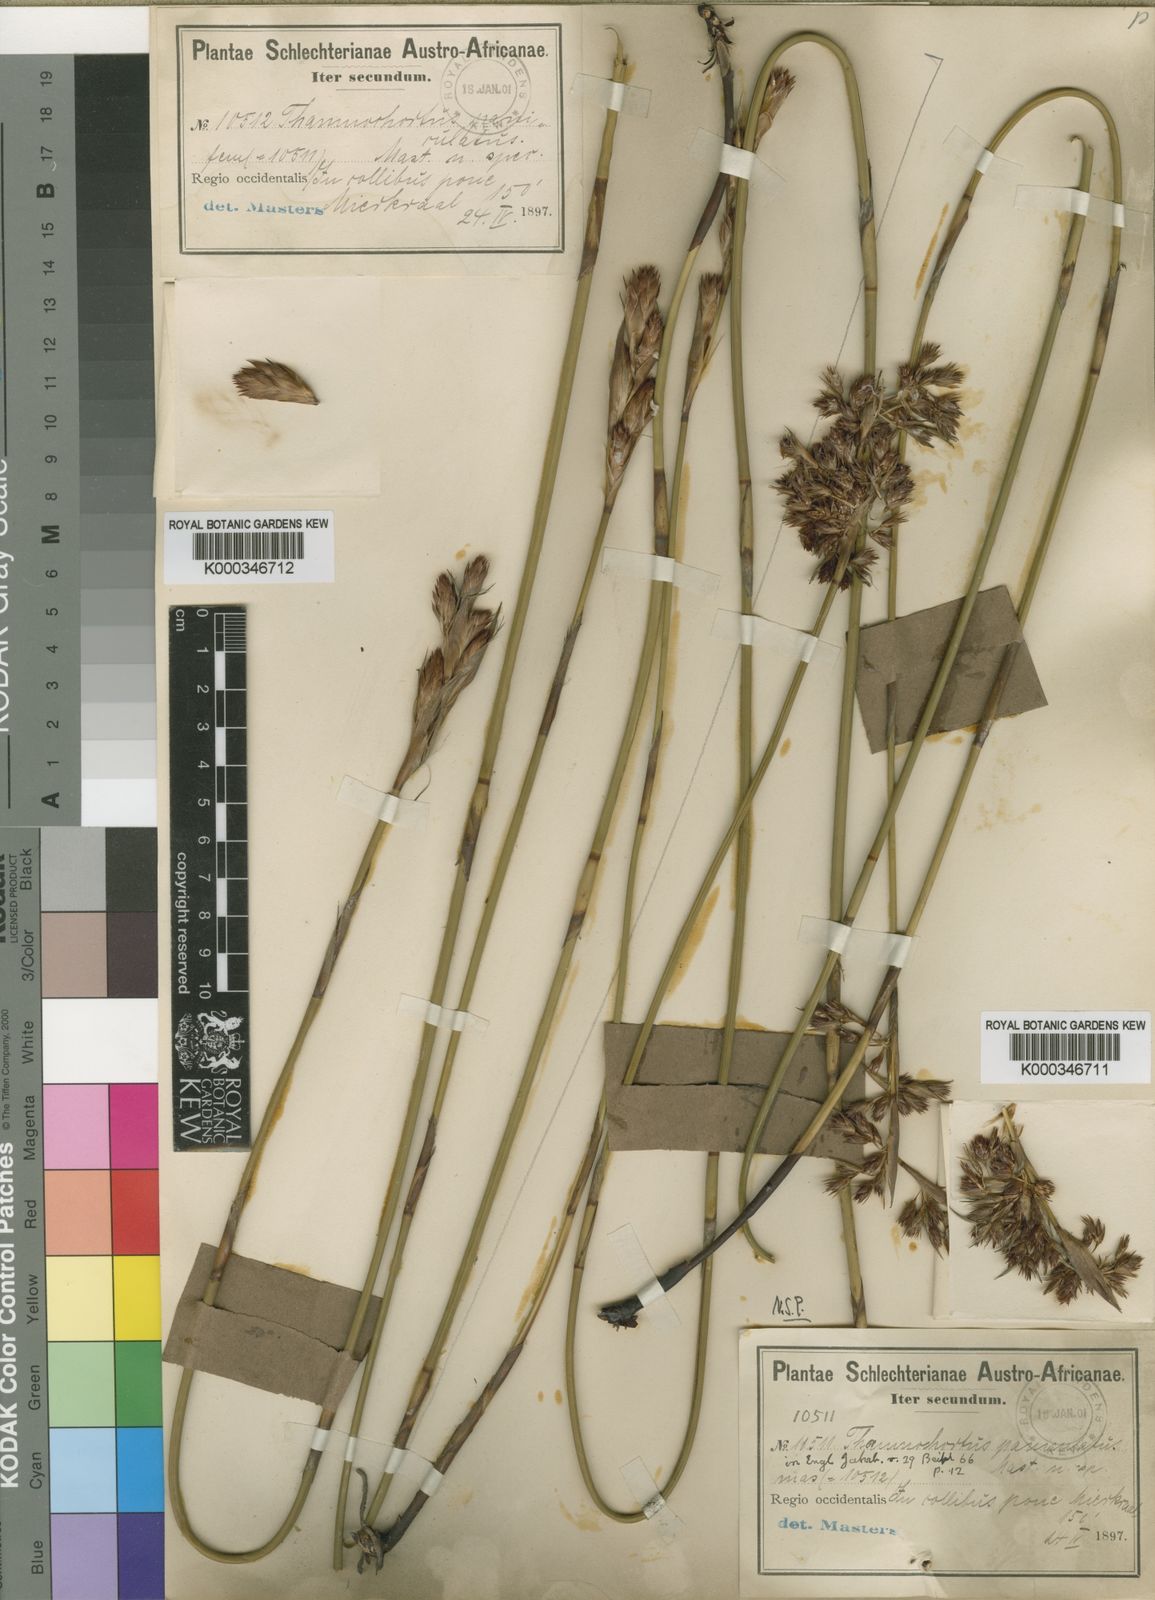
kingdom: Plantae
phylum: Tracheophyta
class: Liliopsida
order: Poales
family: Restionaceae
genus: Thamnochortus
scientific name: Thamnochortus paniculatus
